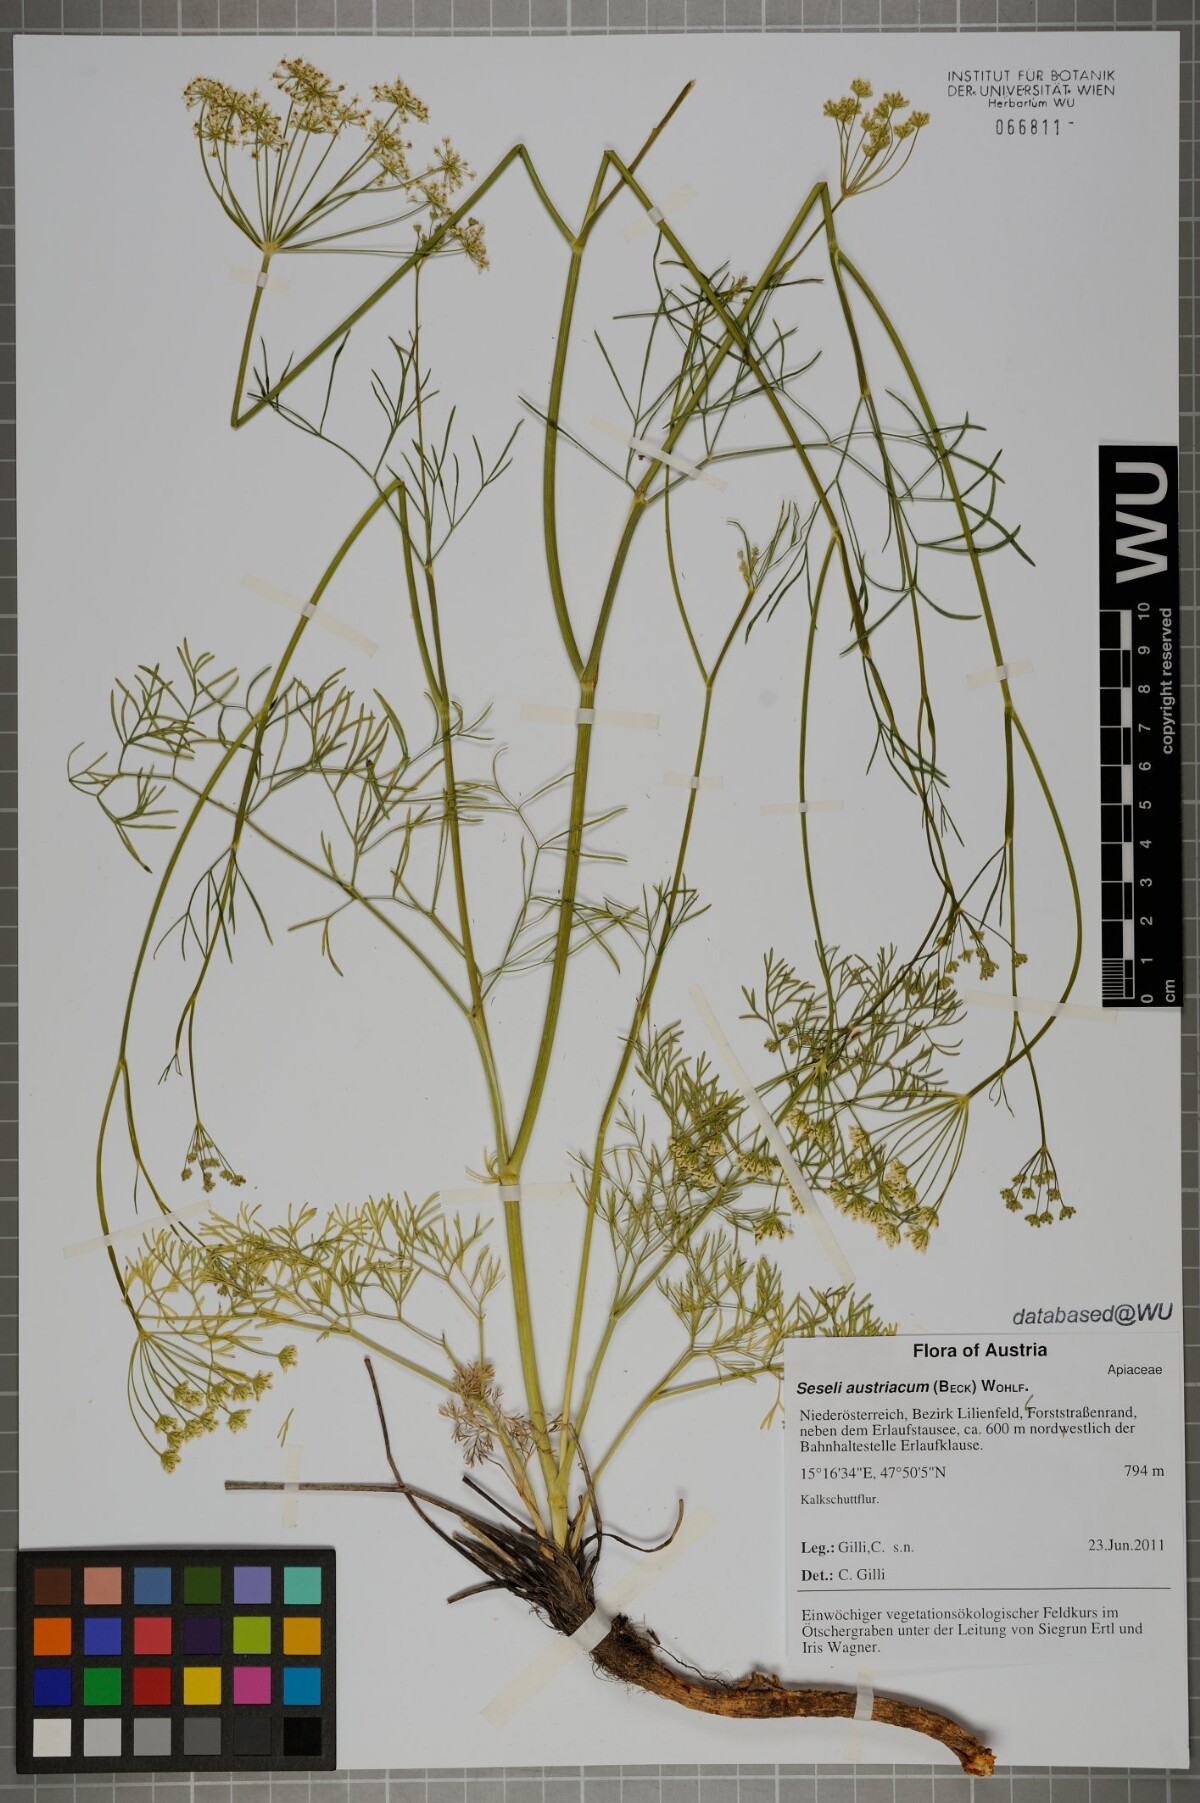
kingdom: Plantae
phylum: Tracheophyta
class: Magnoliopsida
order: Apiales
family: Apiaceae
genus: Seseli
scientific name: Seseli austriacum
